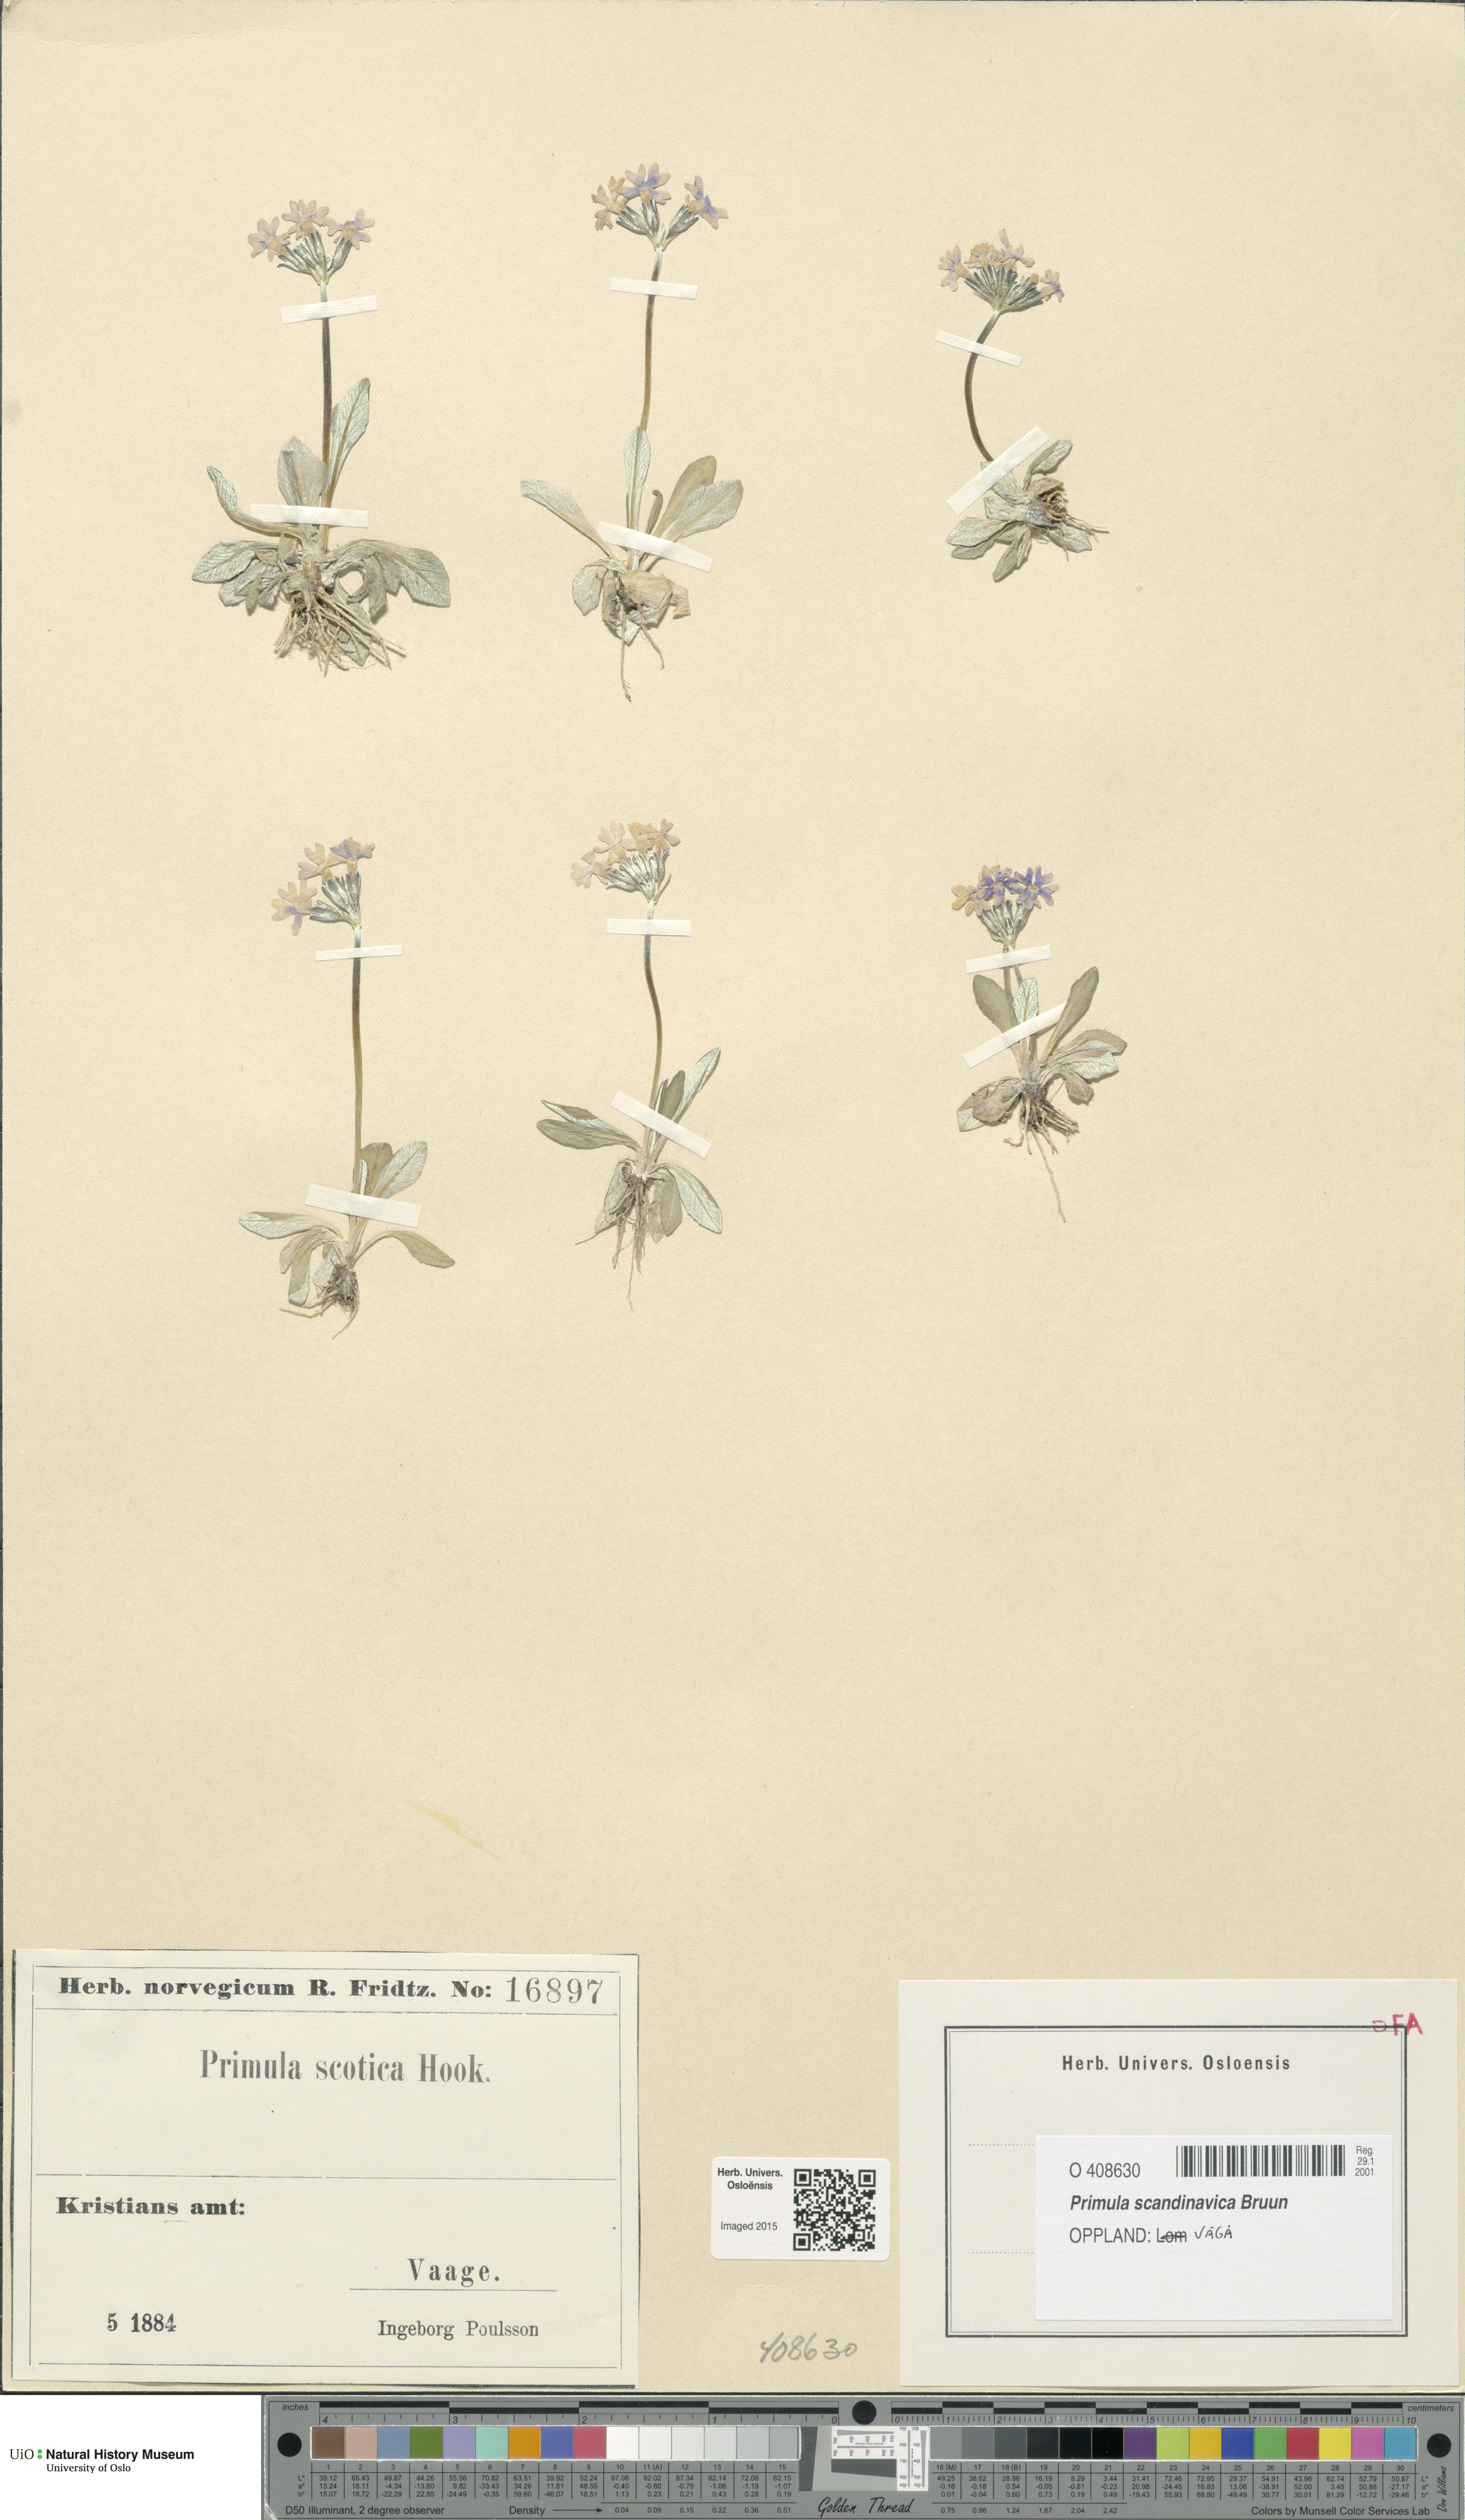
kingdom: Plantae
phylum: Tracheophyta
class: Magnoliopsida
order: Ericales
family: Primulaceae
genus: Primula
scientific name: Primula scandinavica
